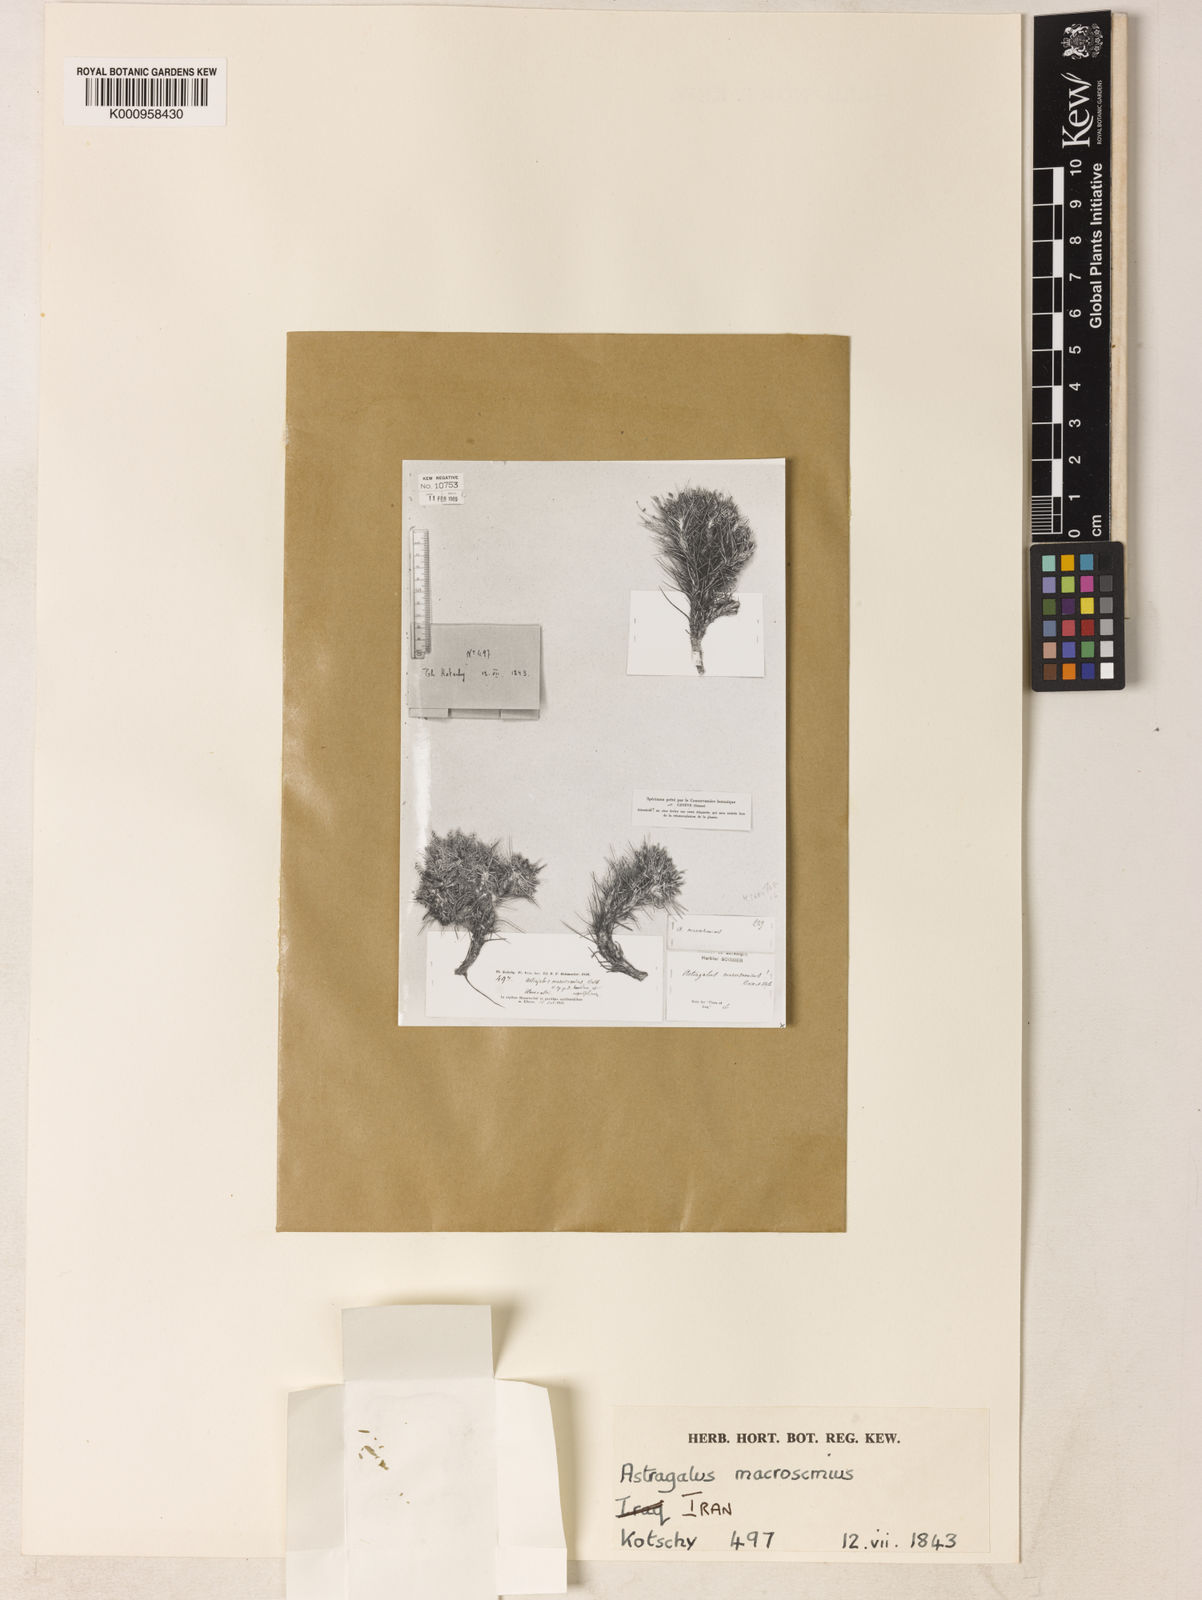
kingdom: Plantae
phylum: Tracheophyta
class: Magnoliopsida
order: Fabales
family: Fabaceae
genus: Astragalus
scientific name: Astragalus macrosemius
